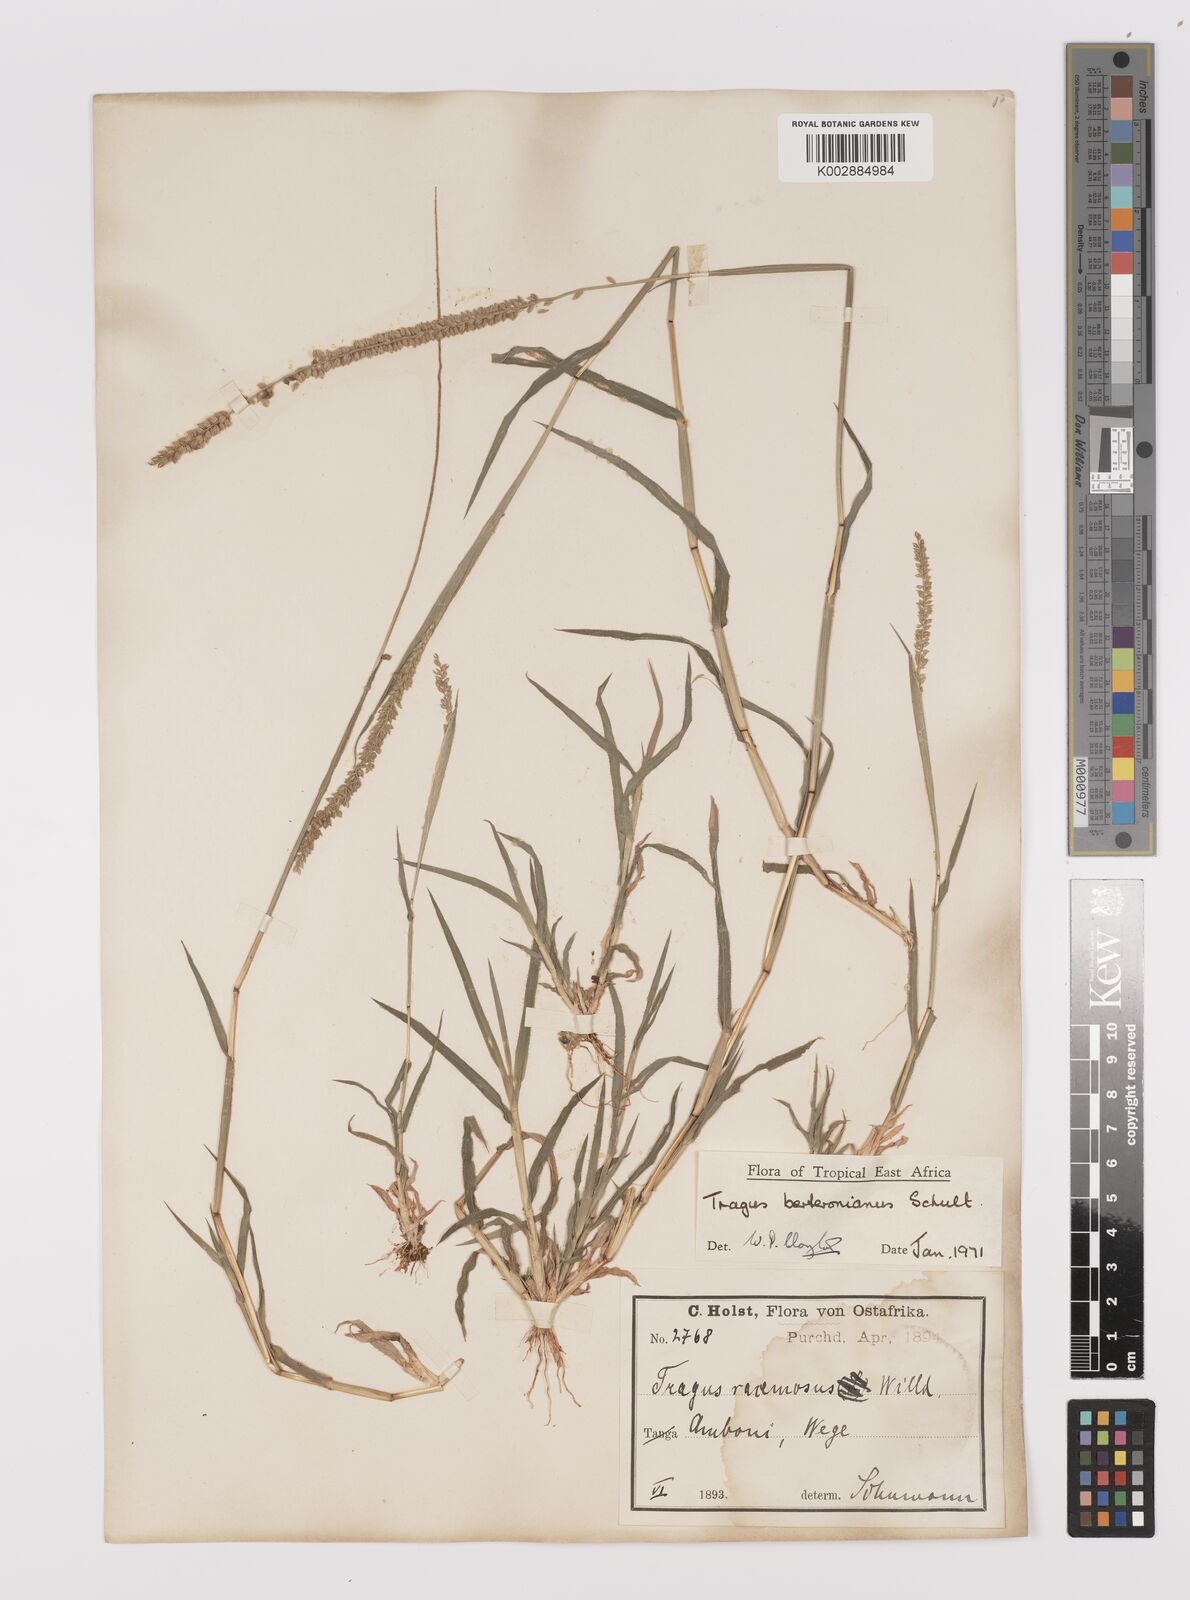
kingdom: Plantae
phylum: Tracheophyta
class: Liliopsida
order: Poales
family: Poaceae
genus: Tragus
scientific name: Tragus berteronianus
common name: African bur-grass
